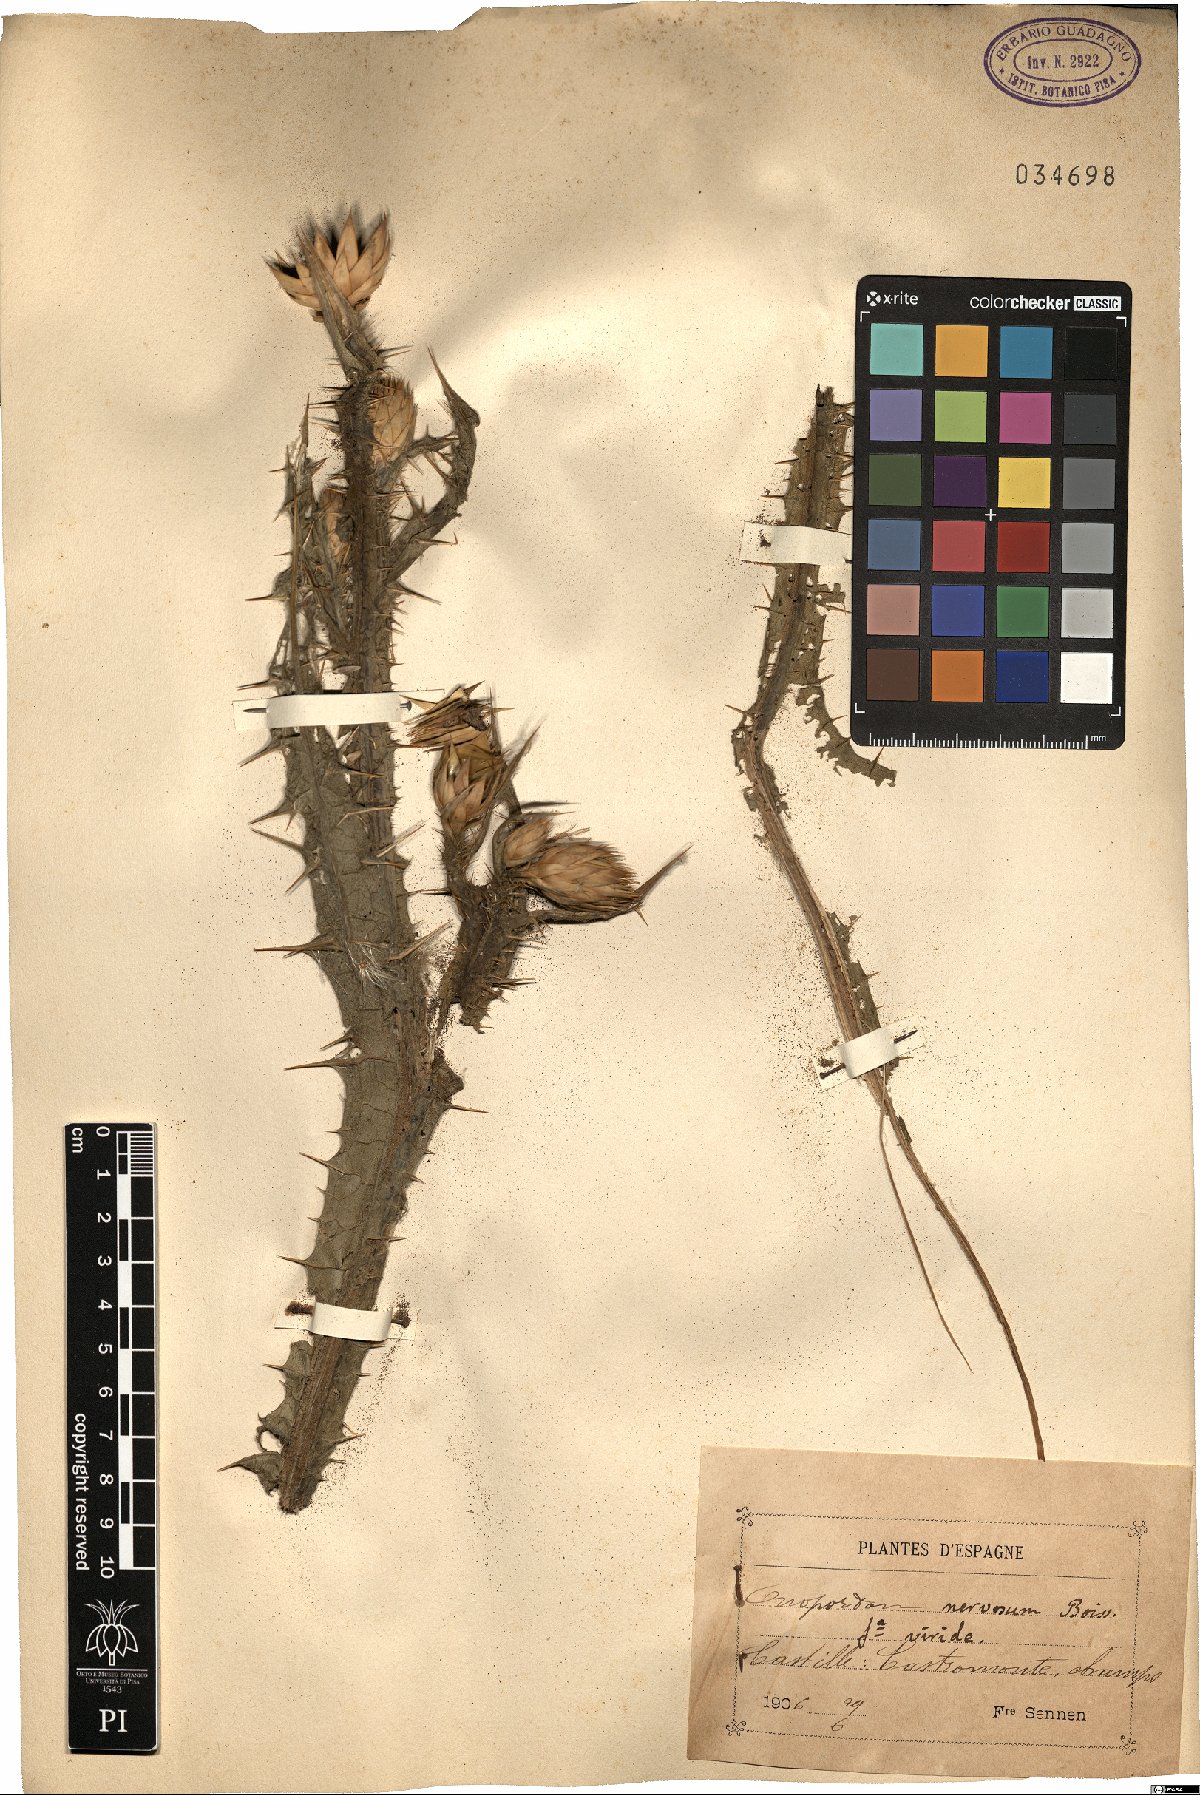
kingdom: Plantae
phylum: Tracheophyta
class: Magnoliopsida
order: Asterales
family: Asteraceae
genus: Onopordum
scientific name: Onopordum nervosum
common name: Reticulate thistle
